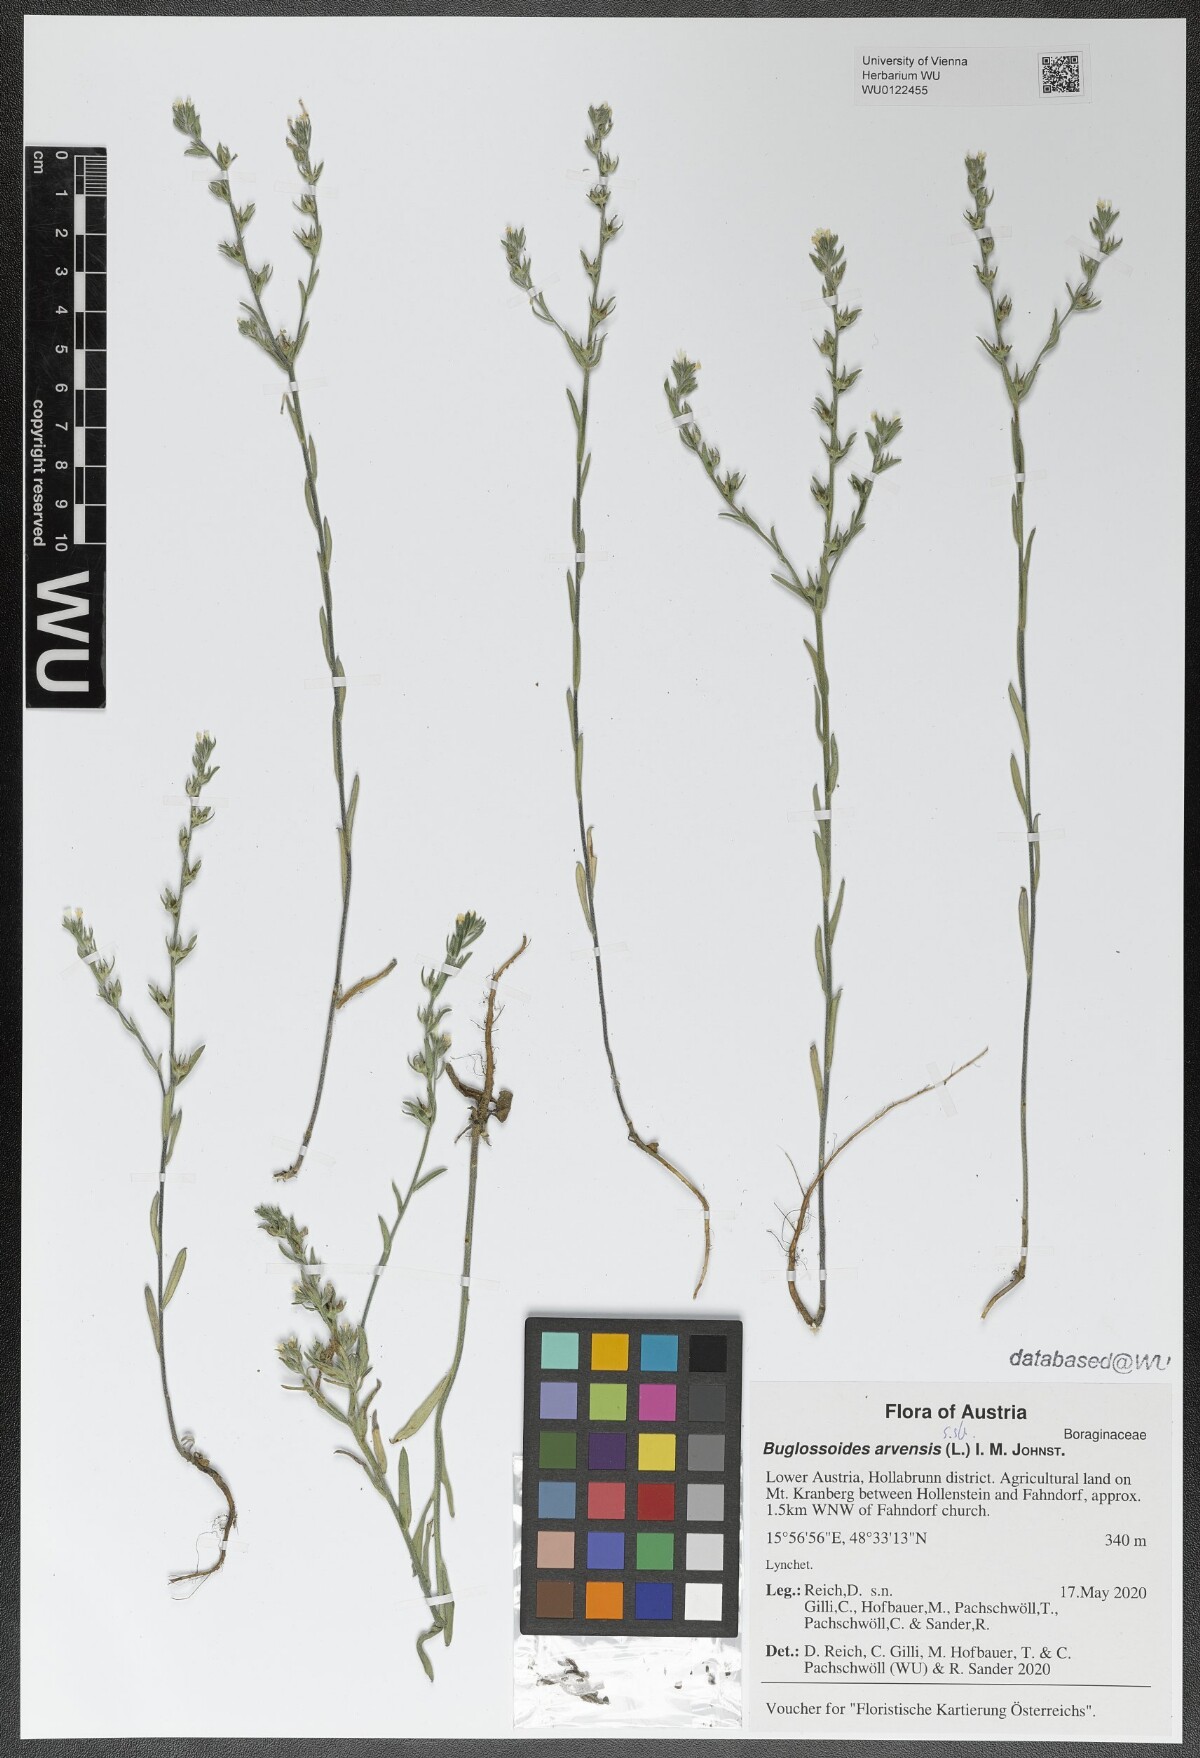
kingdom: Plantae
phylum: Tracheophyta
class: Magnoliopsida
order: Boraginales
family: Boraginaceae
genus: Buglossoides
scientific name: Buglossoides arvensis
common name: Corn gromwell
